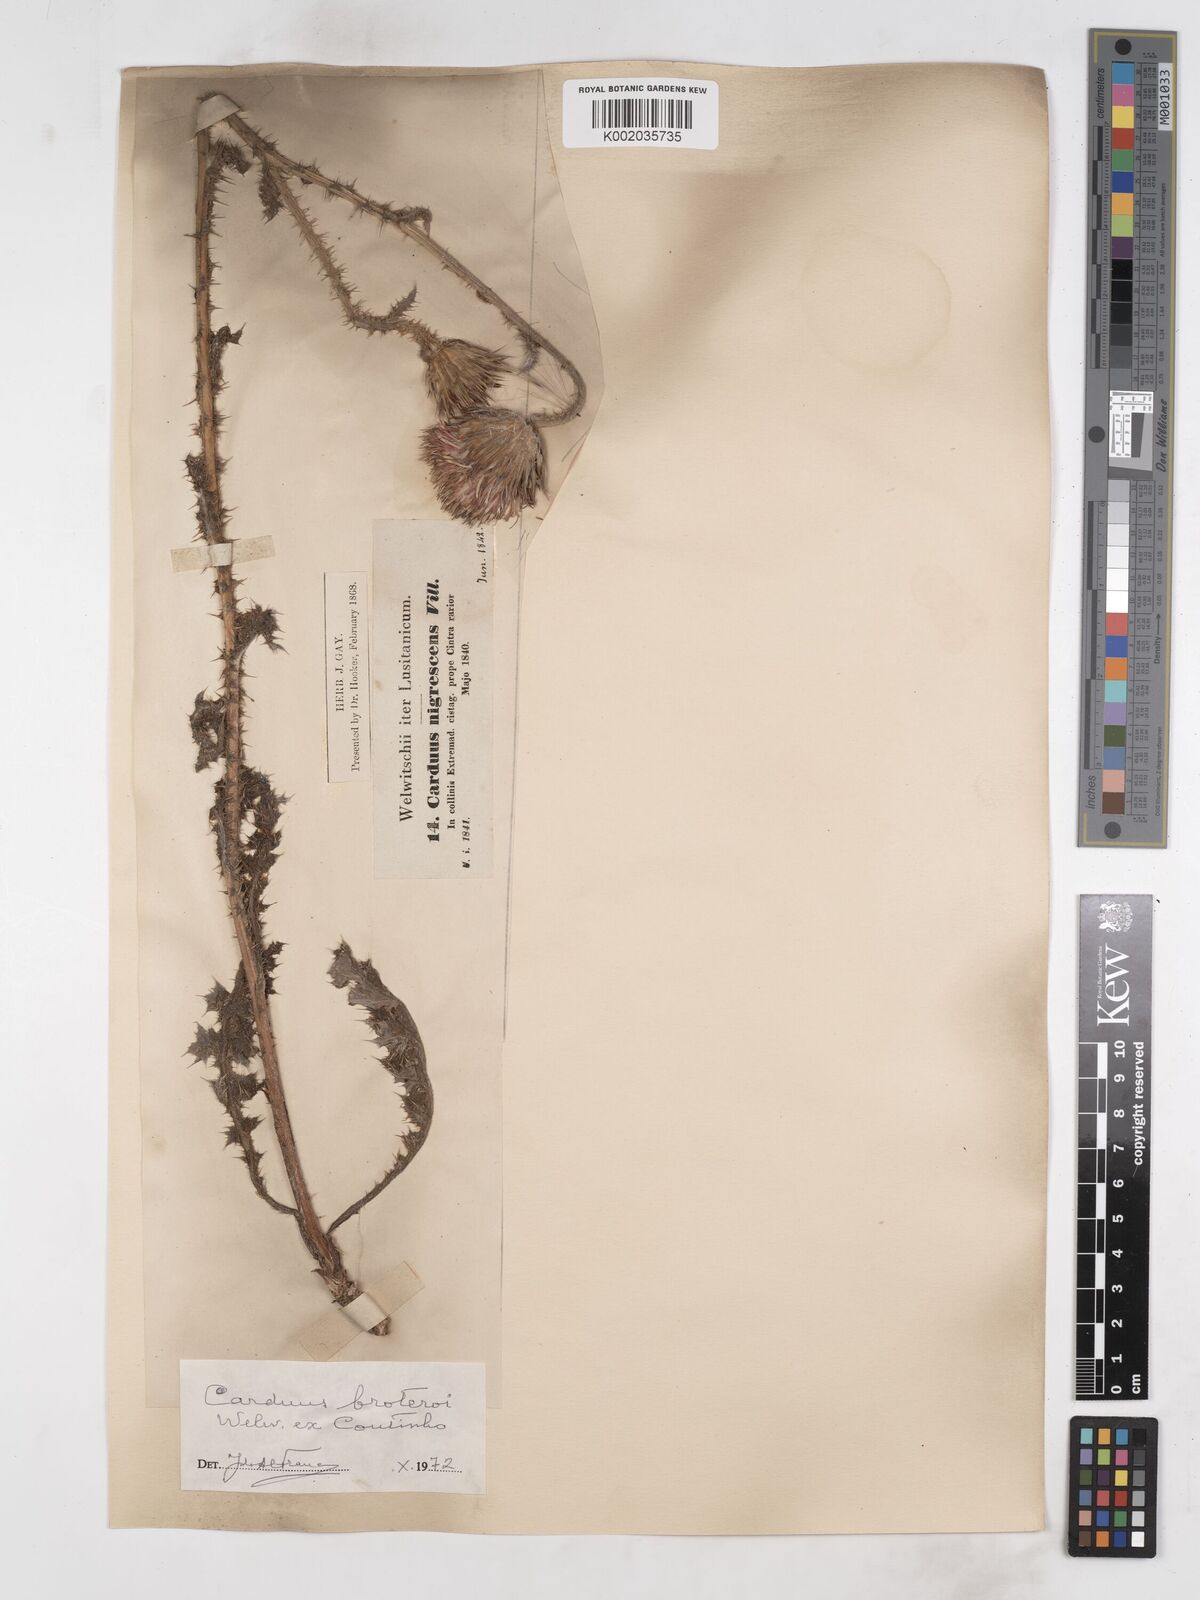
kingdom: Plantae
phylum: Tracheophyta
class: Magnoliopsida
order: Asterales
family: Asteraceae
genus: Carduus
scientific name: Carduus broteroi
